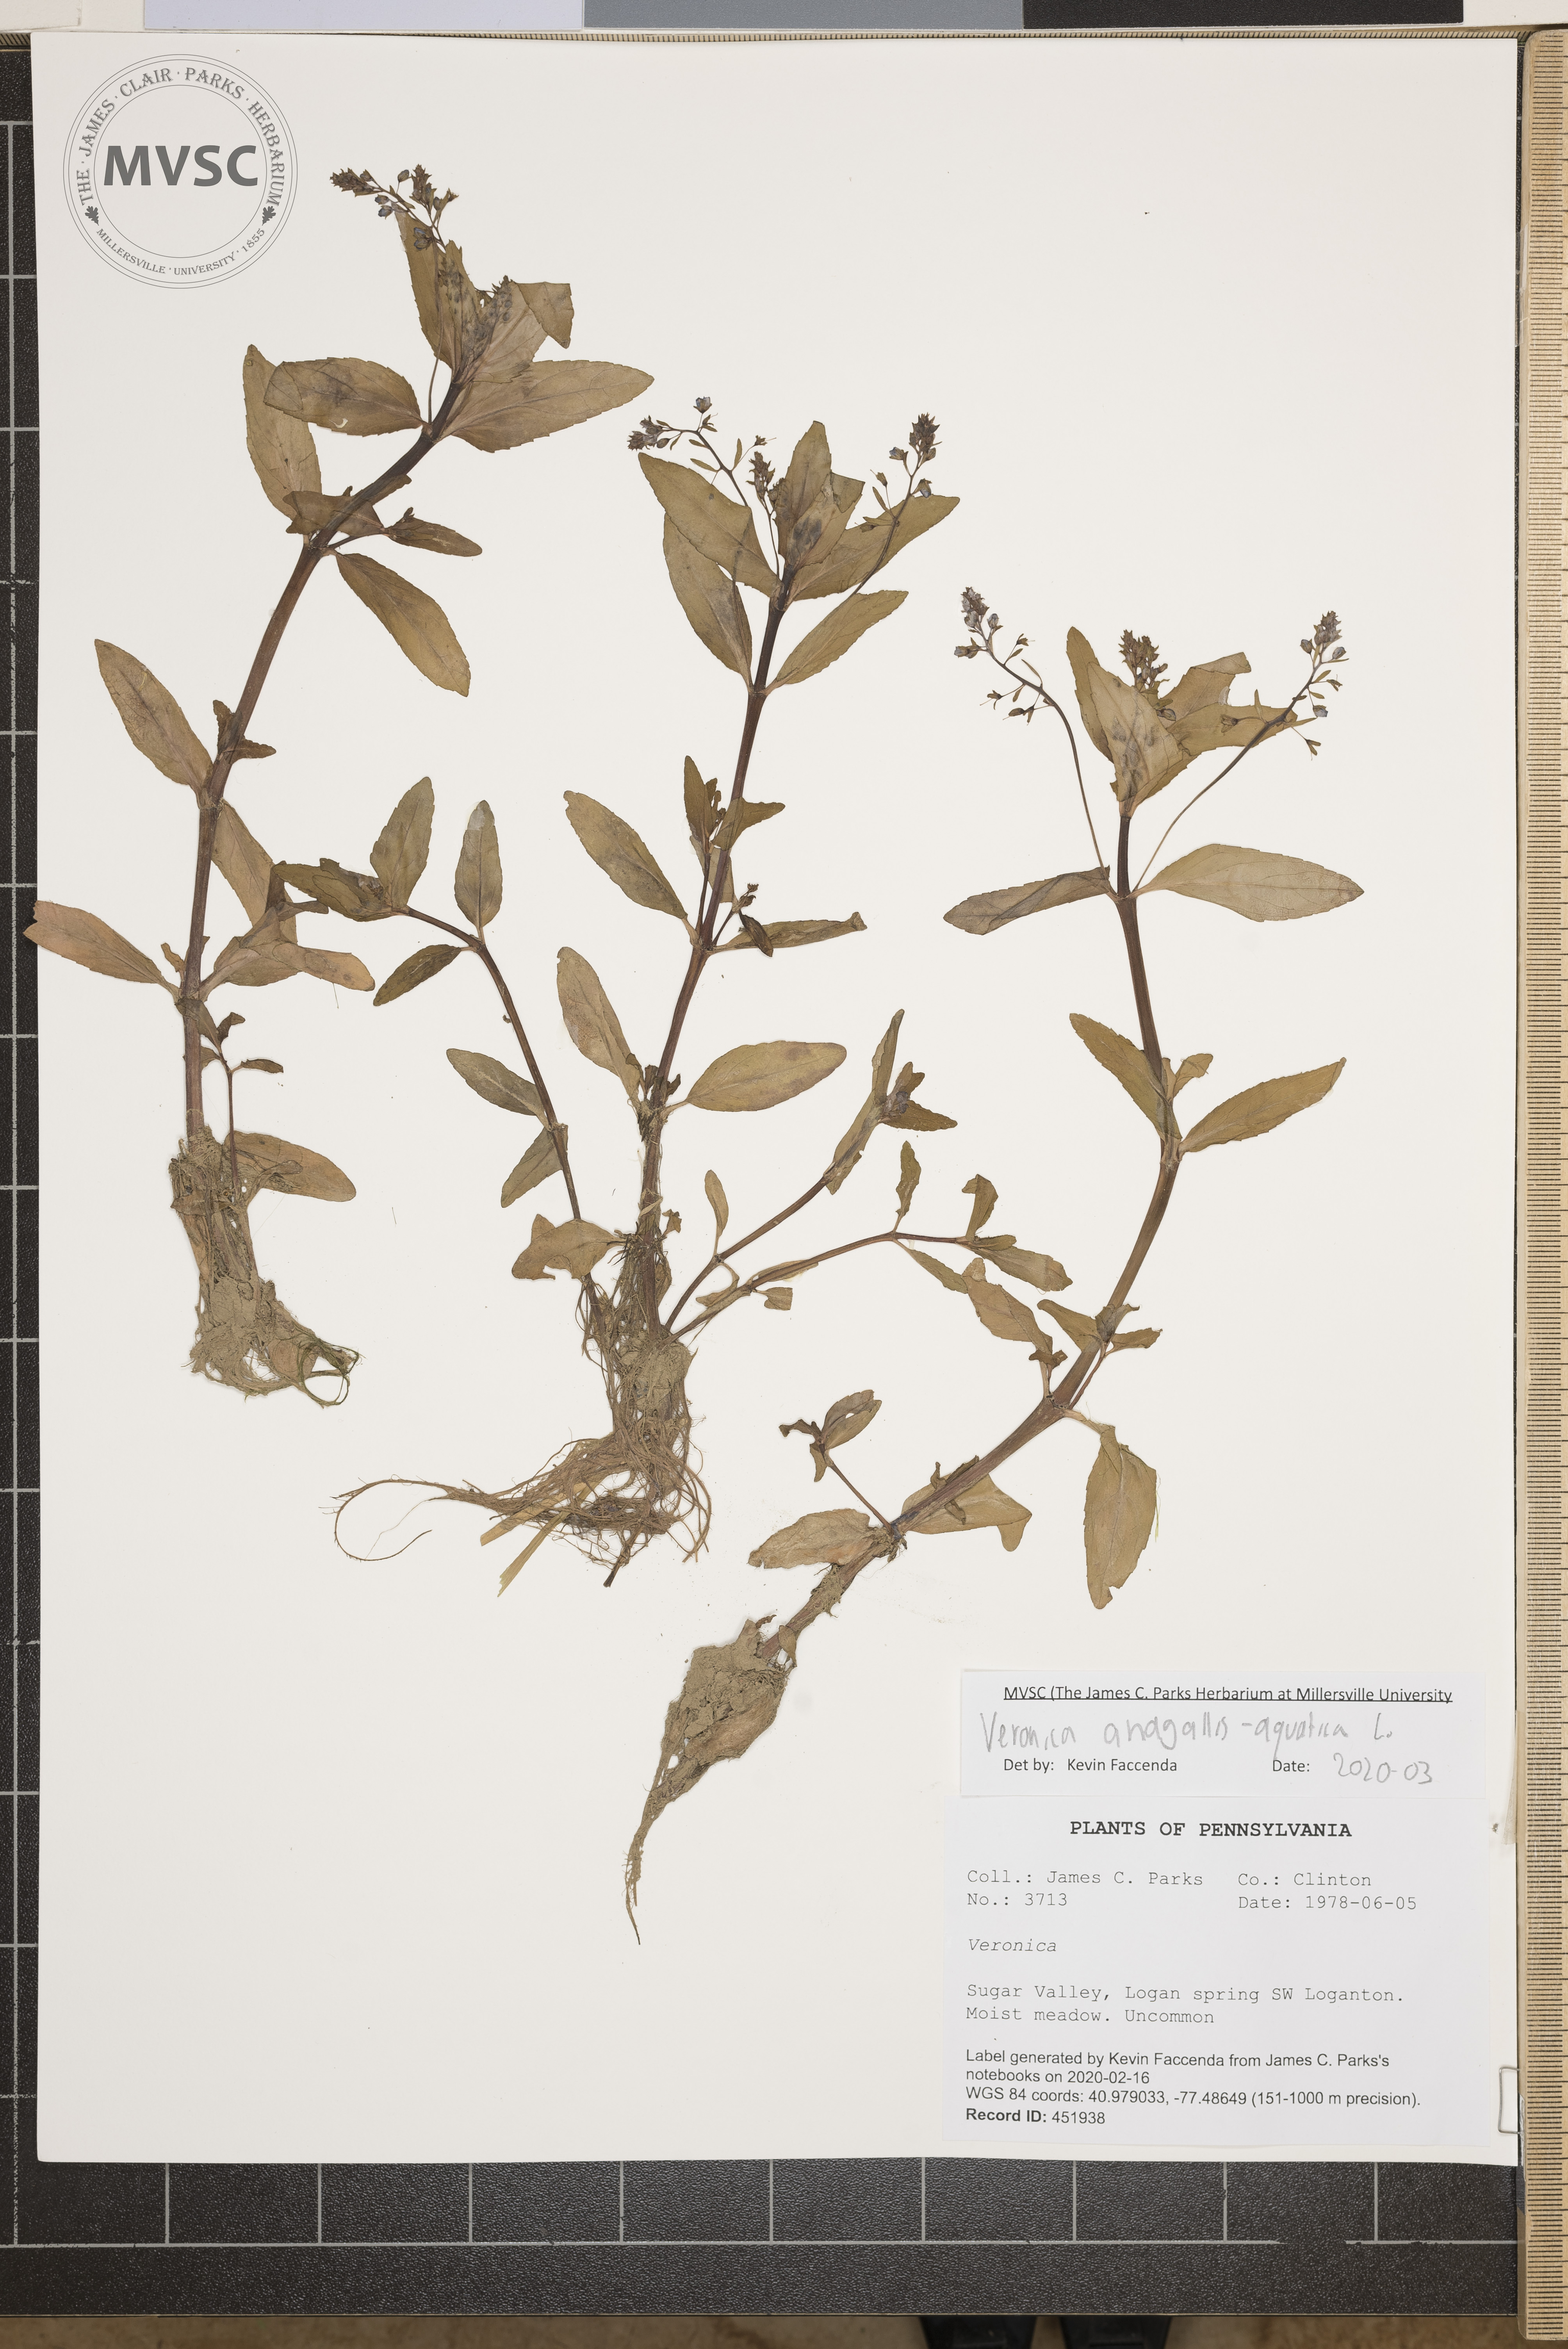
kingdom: Plantae
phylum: Tracheophyta
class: Magnoliopsida
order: Lamiales
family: Plantaginaceae
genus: Veronica
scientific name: Veronica anagallis-aquatica
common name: Water speedwell
